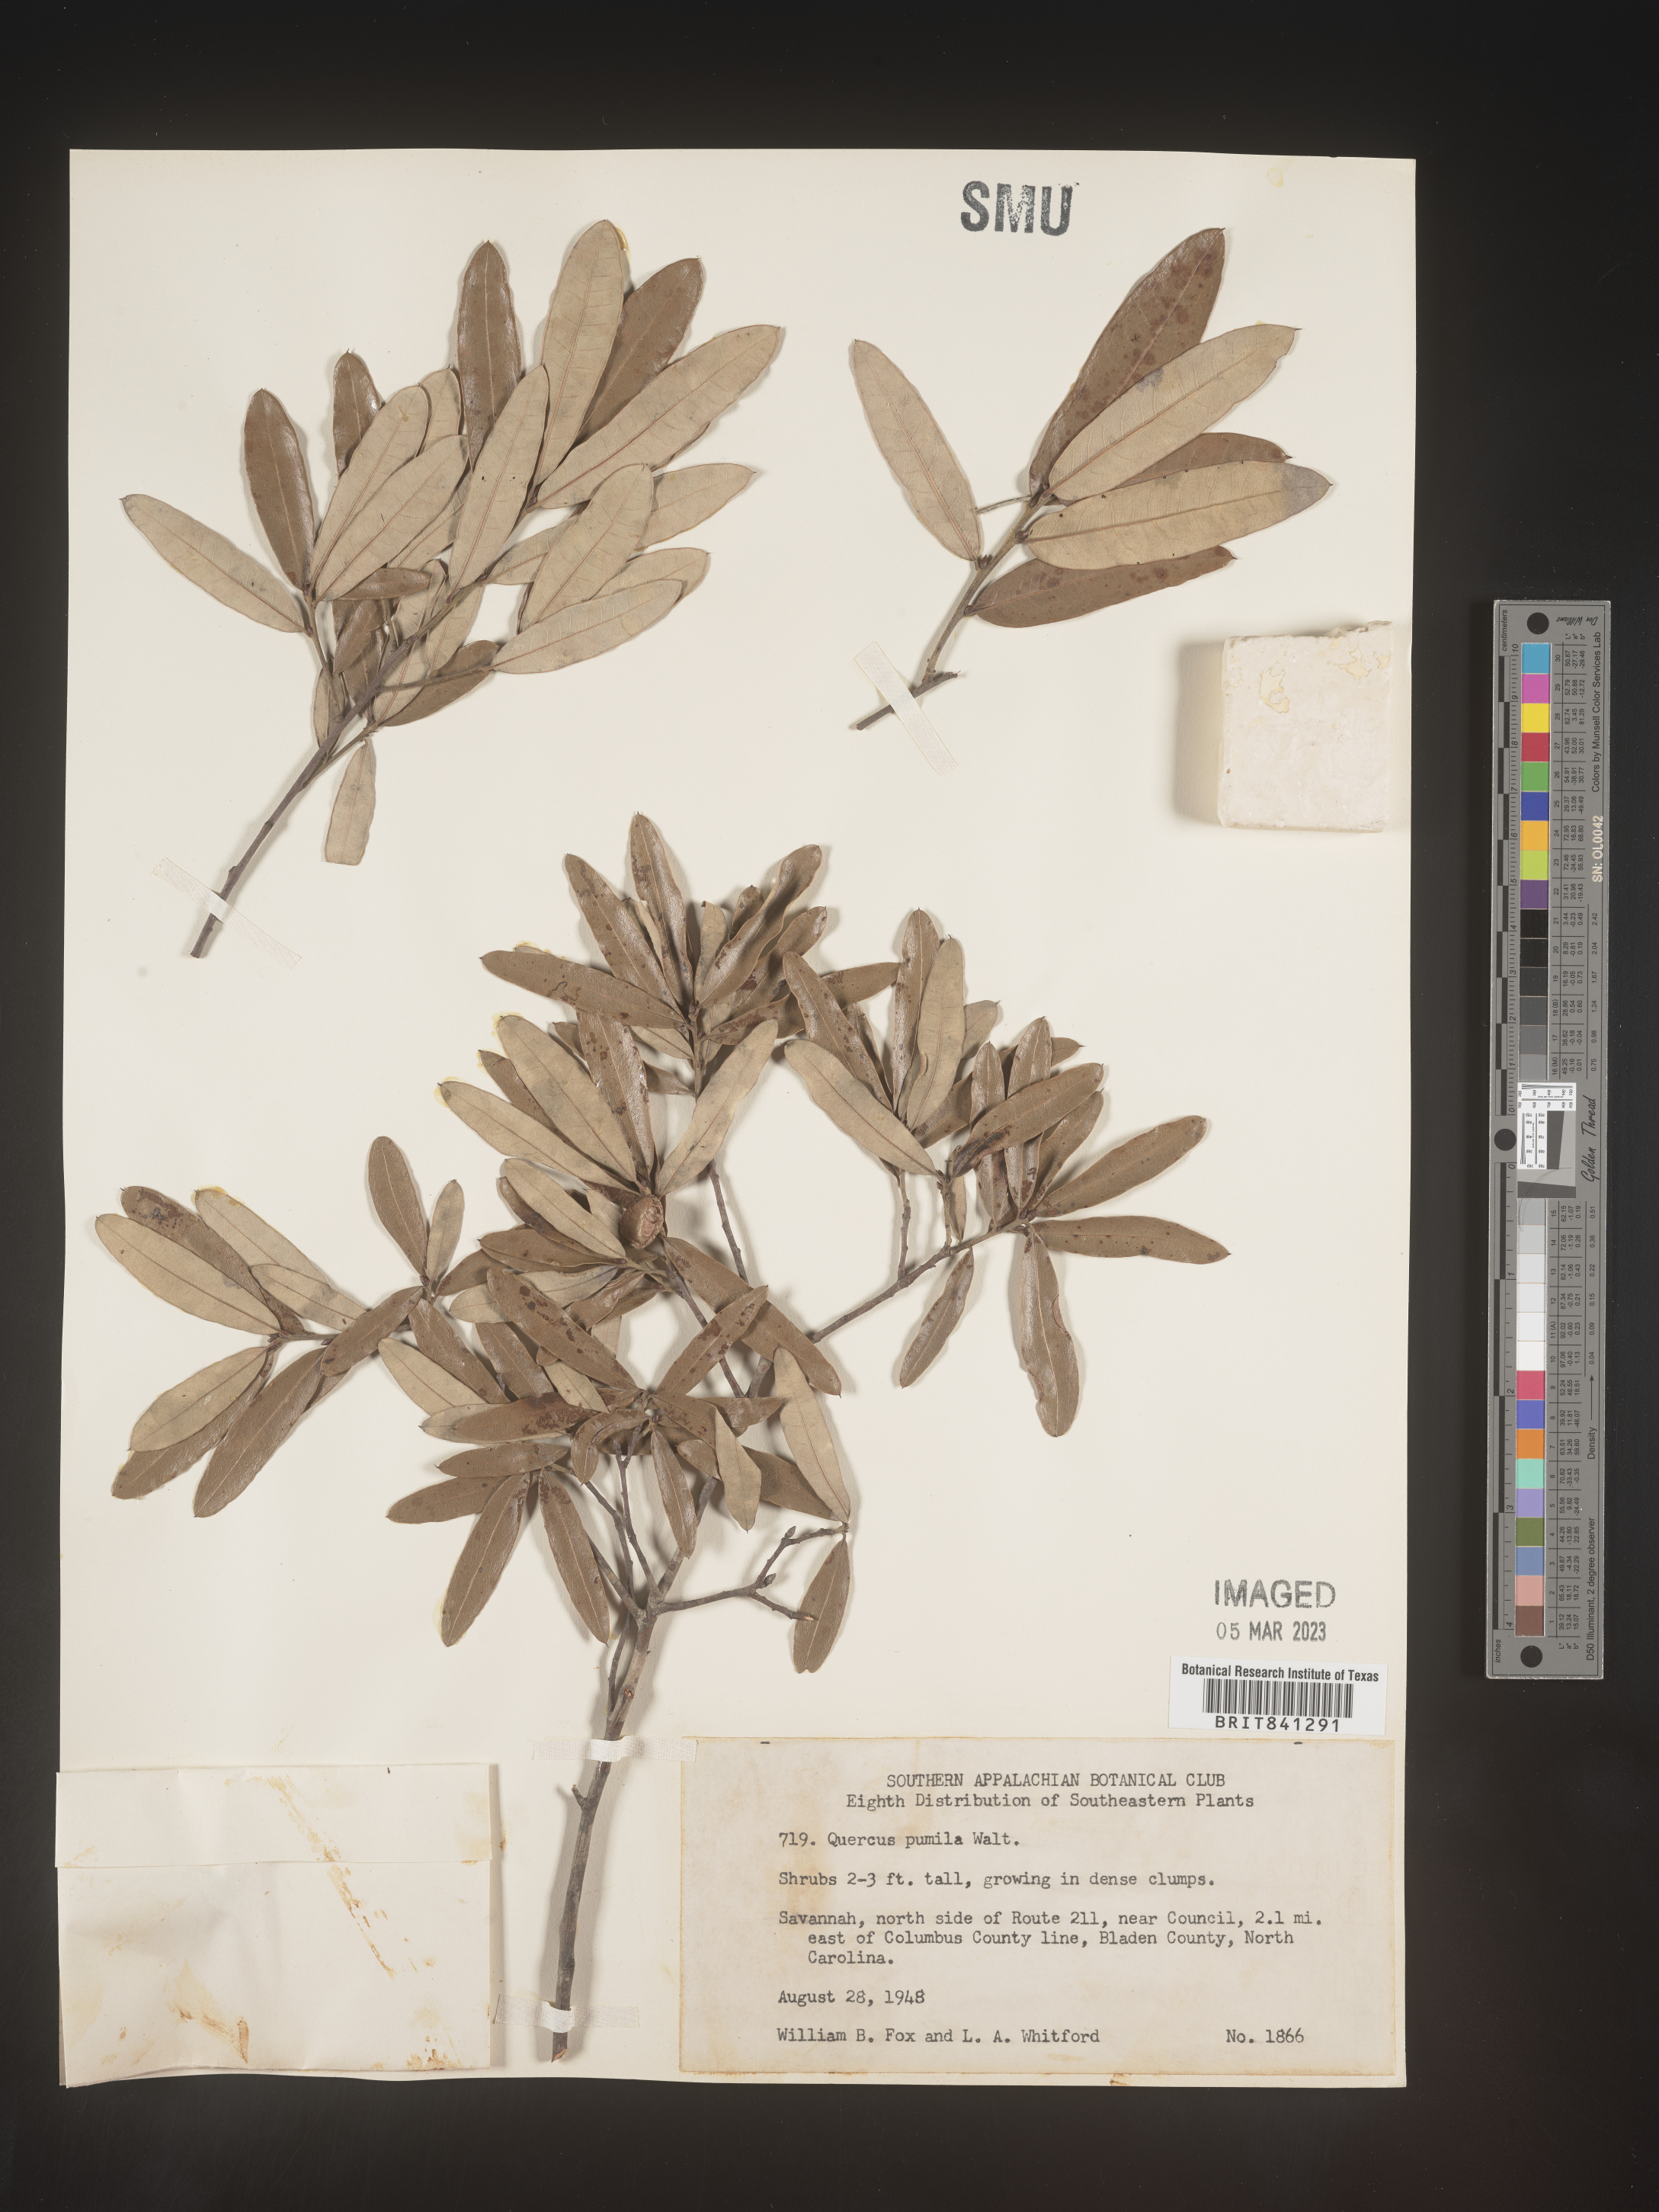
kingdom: Plantae
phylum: Tracheophyta
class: Magnoliopsida
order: Fagales
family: Fagaceae
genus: Quercus
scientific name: Quercus pumila
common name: Runner oak
